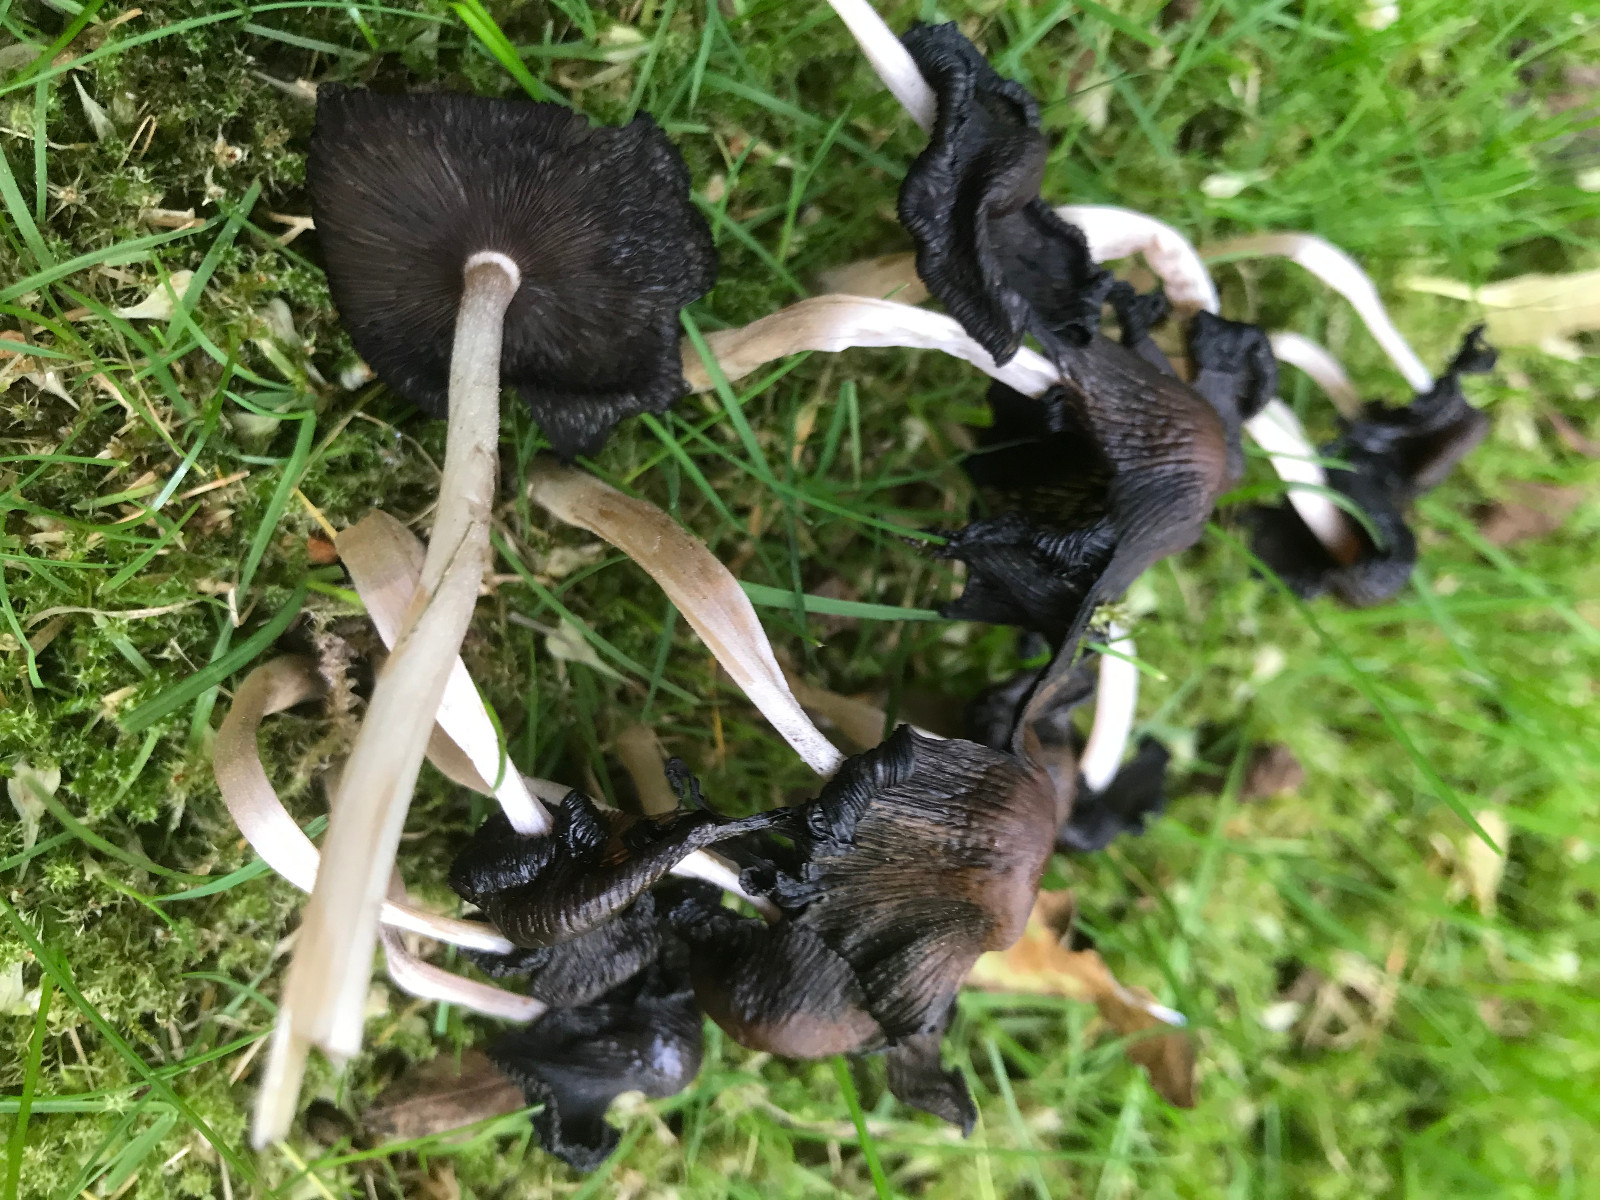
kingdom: Fungi
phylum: Basidiomycota
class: Agaricomycetes
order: Agaricales
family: Psathyrellaceae
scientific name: Psathyrellaceae
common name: mørkhatfamilien
